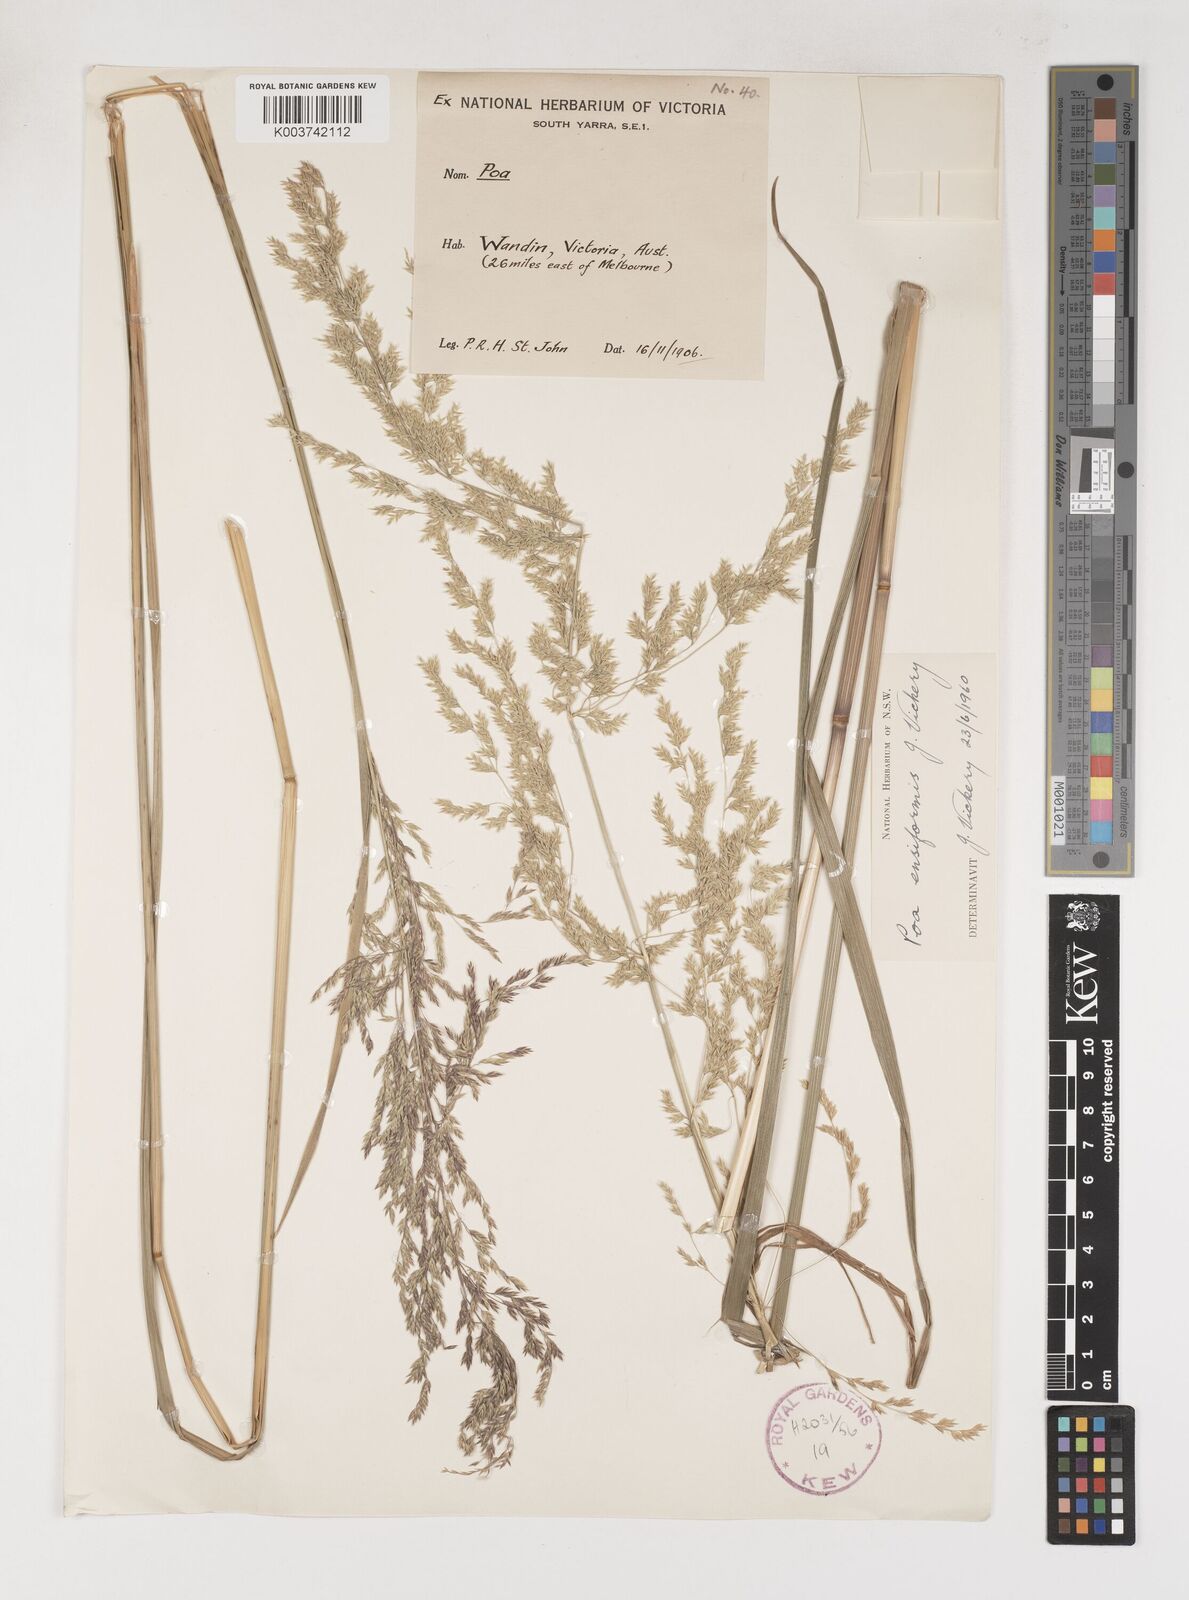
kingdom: Plantae
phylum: Tracheophyta
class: Liliopsida
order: Poales
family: Poaceae
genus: Poa
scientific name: Poa ensiformis
